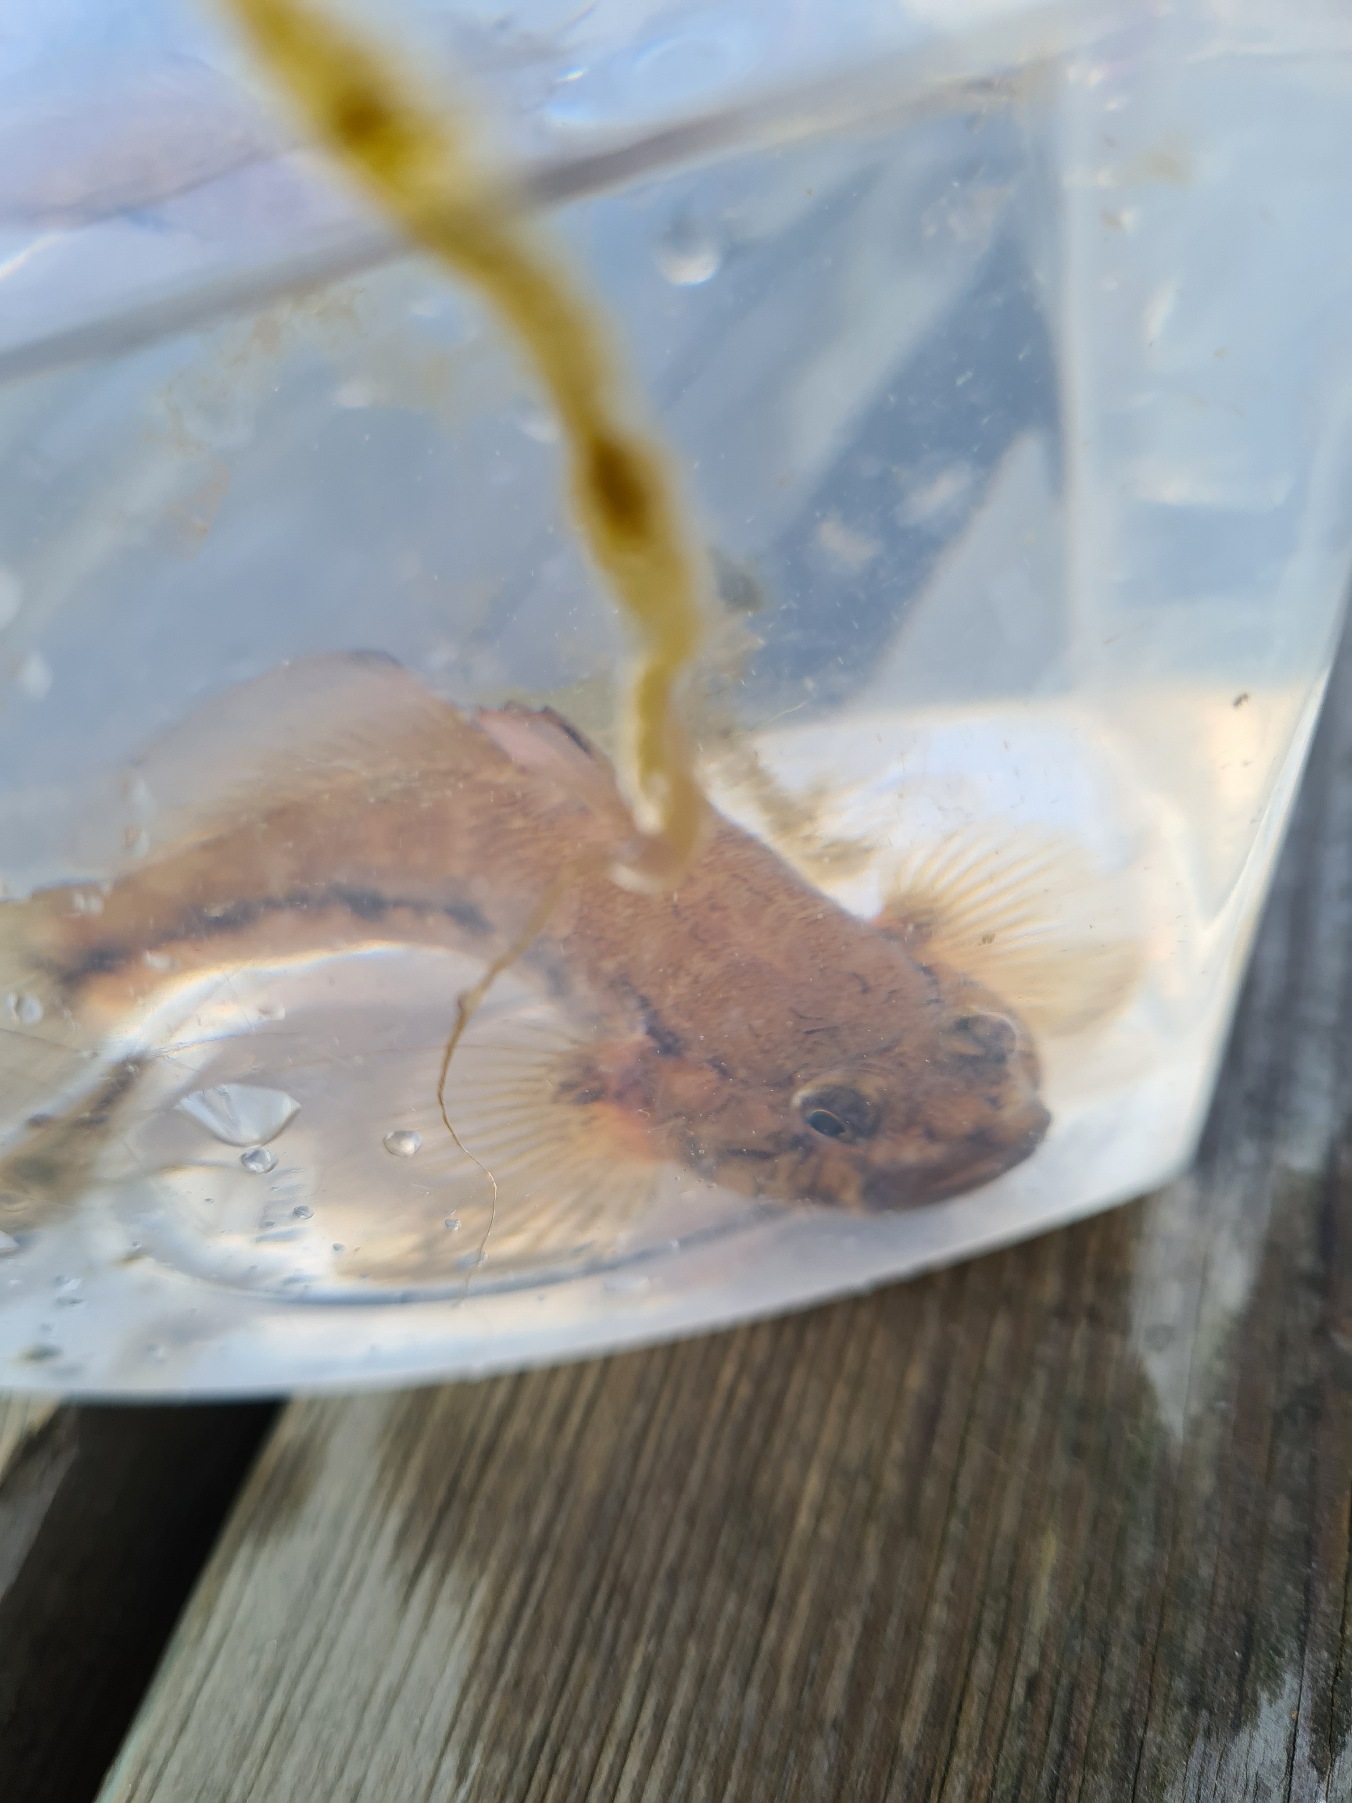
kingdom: Animalia
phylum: Chordata
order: Perciformes
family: Gobiidae
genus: Gobius
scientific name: Gobius niger
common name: Sortkutling
